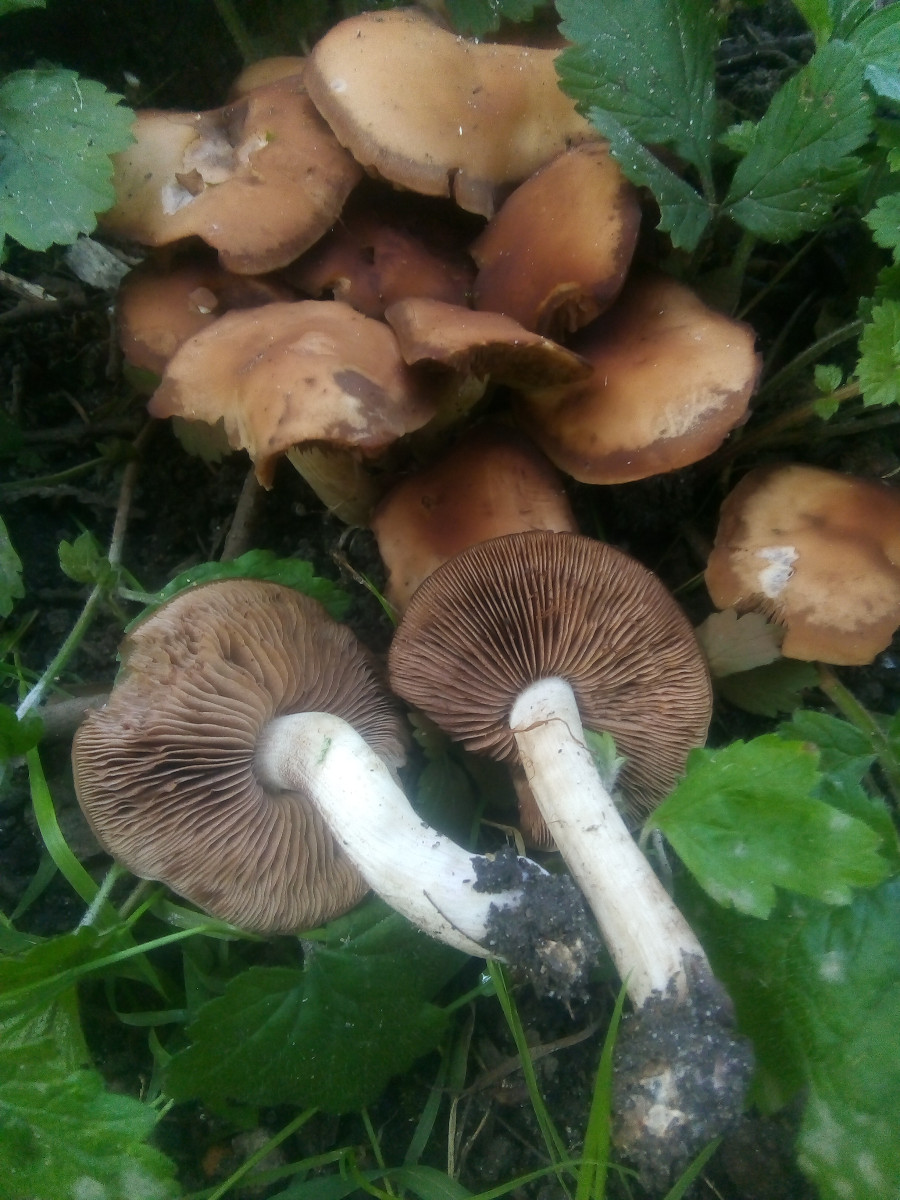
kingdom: Fungi
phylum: Basidiomycota
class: Agaricomycetes
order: Agaricales
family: Psathyrellaceae
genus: Homophron
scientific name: Homophron spadiceum
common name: daddelbrun mørkhat
